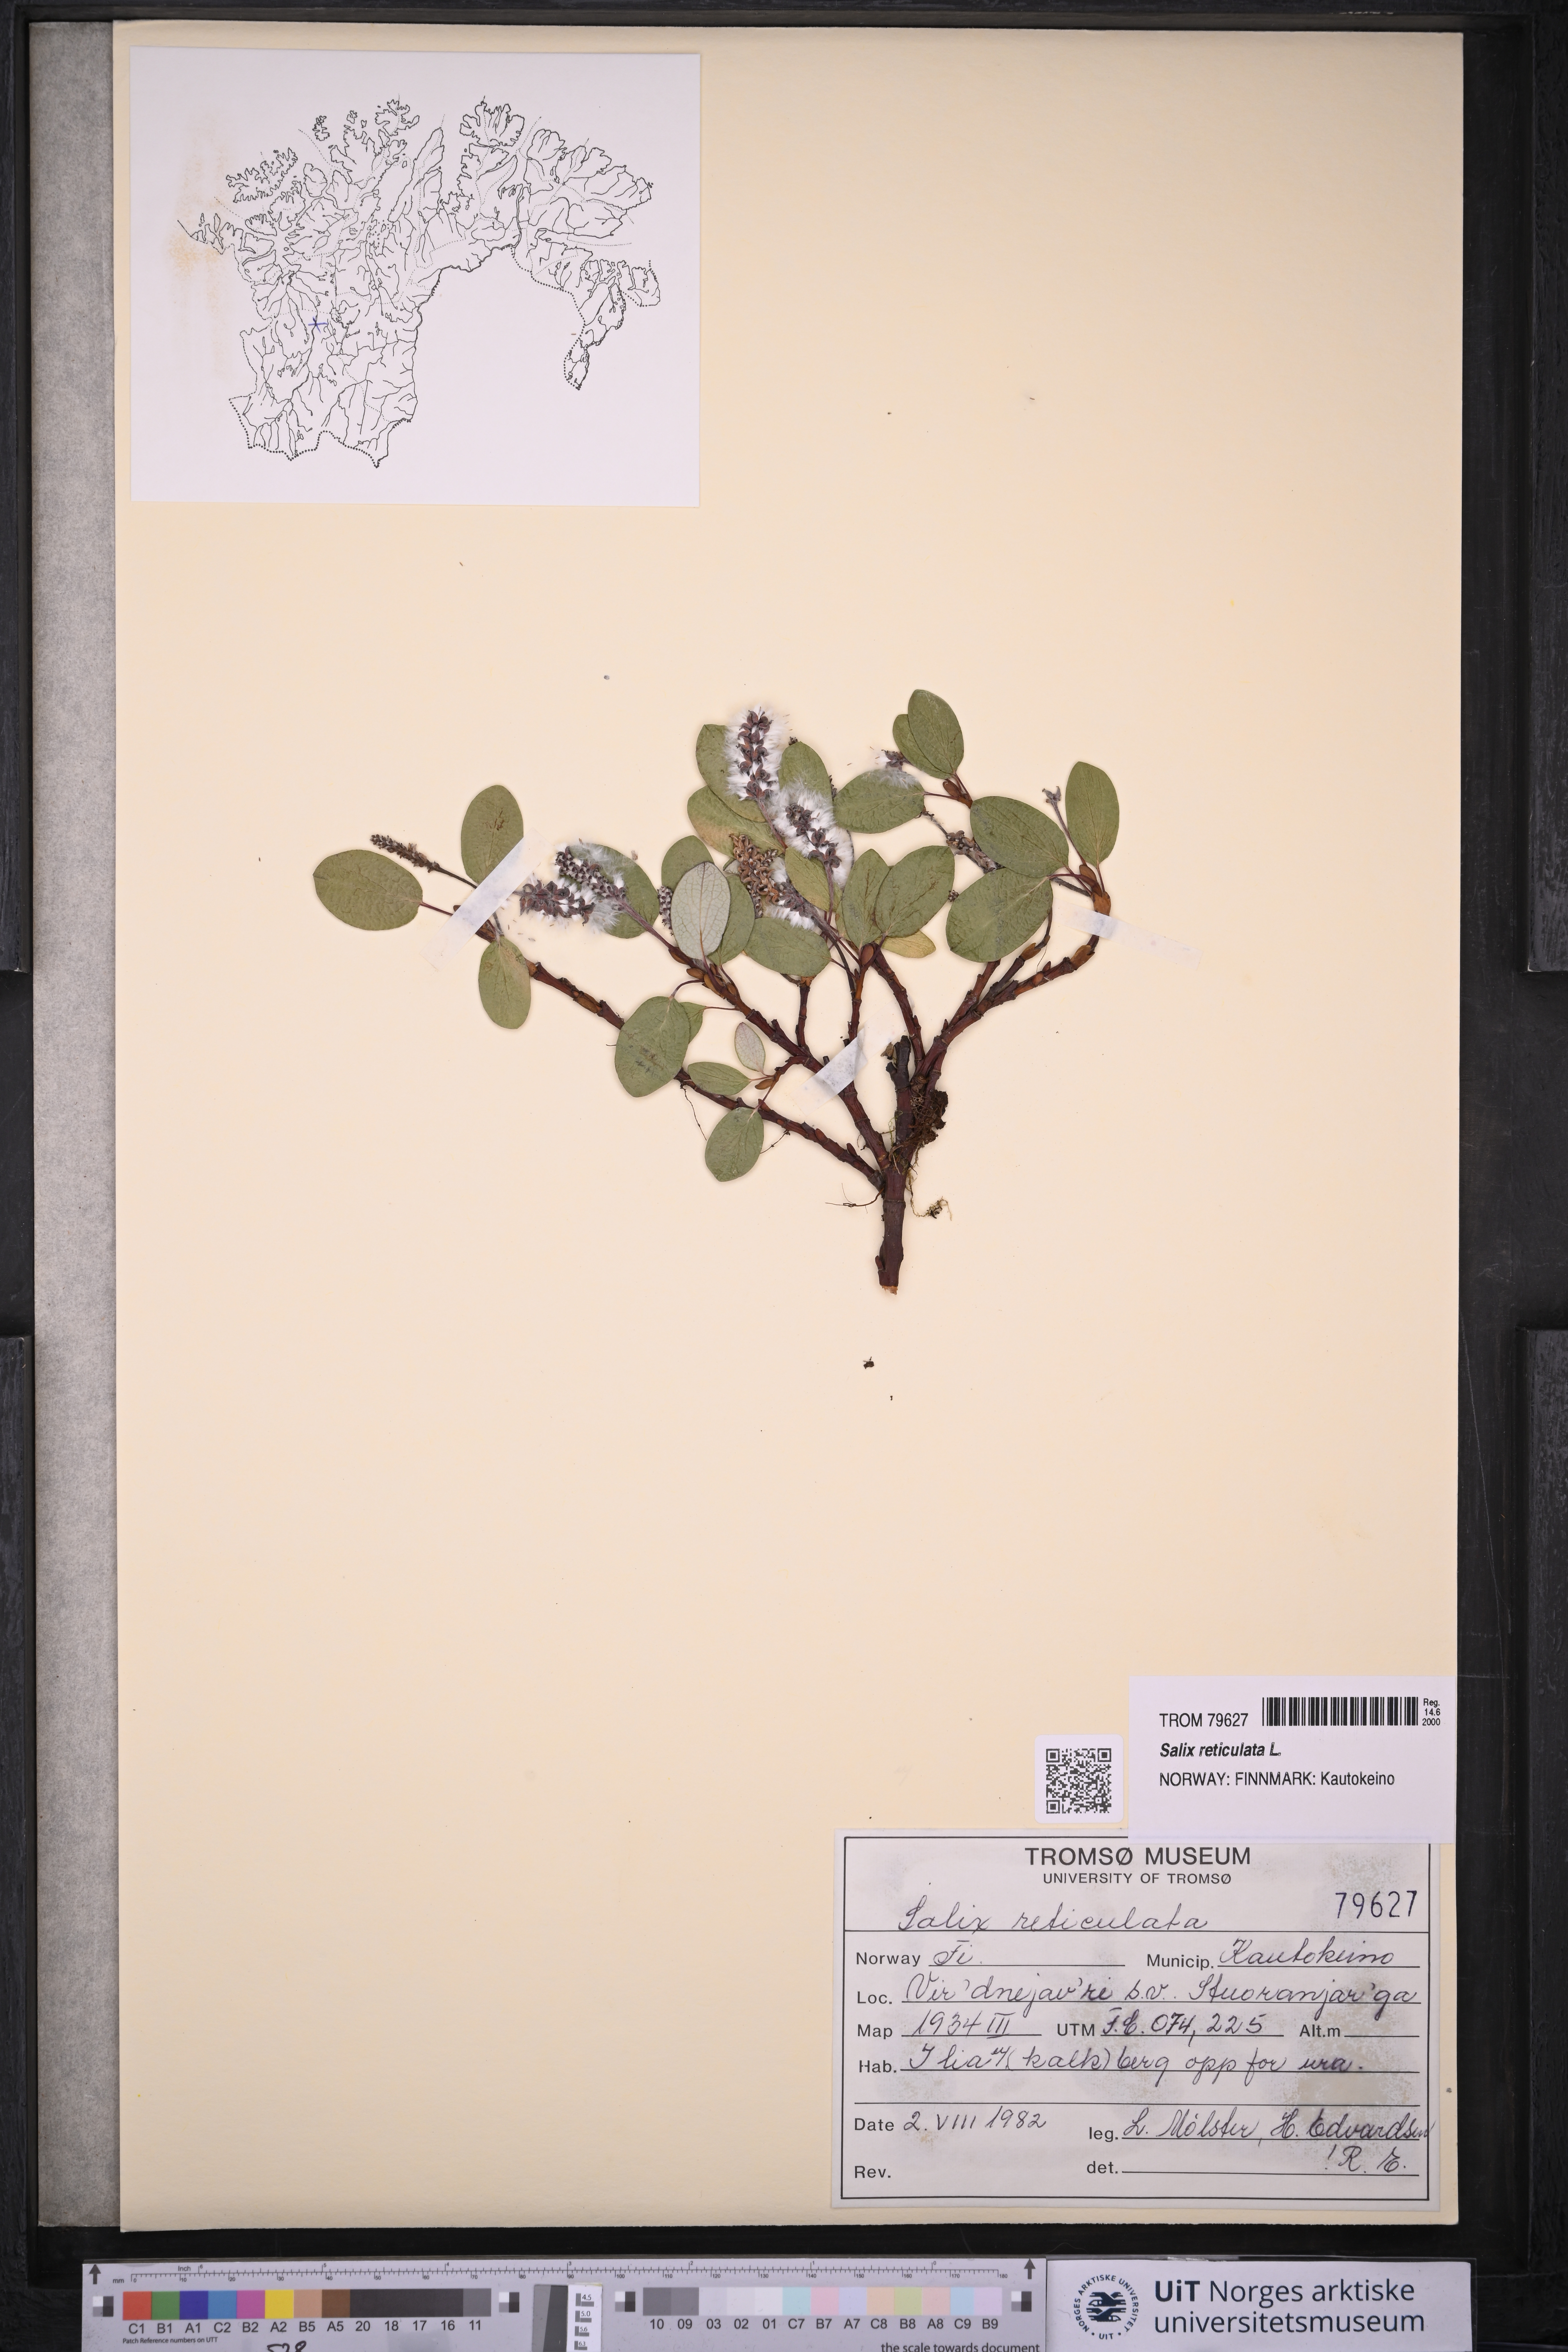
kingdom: Plantae
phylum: Tracheophyta
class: Magnoliopsida
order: Malpighiales
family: Salicaceae
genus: Salix
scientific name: Salix reticulata
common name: Net-leaved willow
